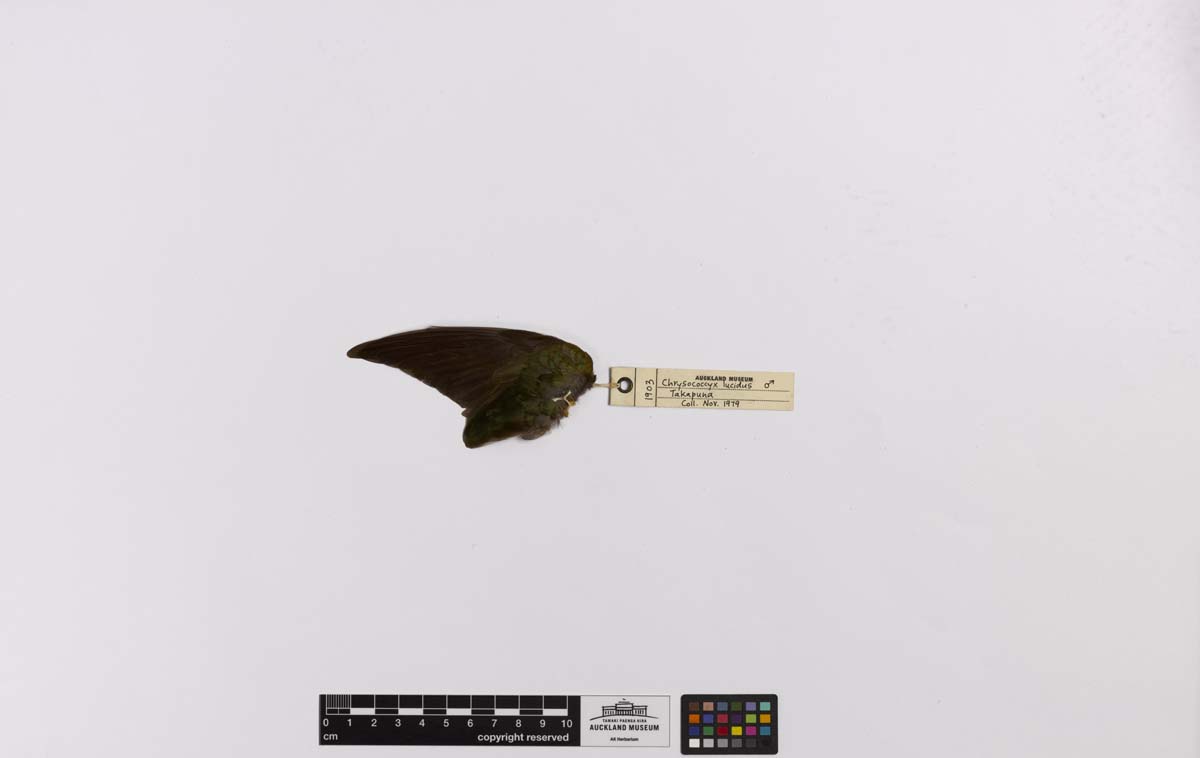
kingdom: Animalia
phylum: Chordata
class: Aves
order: Cuculiformes
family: Cuculidae
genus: Chrysococcyx
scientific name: Chrysococcyx lucidus
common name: Shining bronze cuckoo
